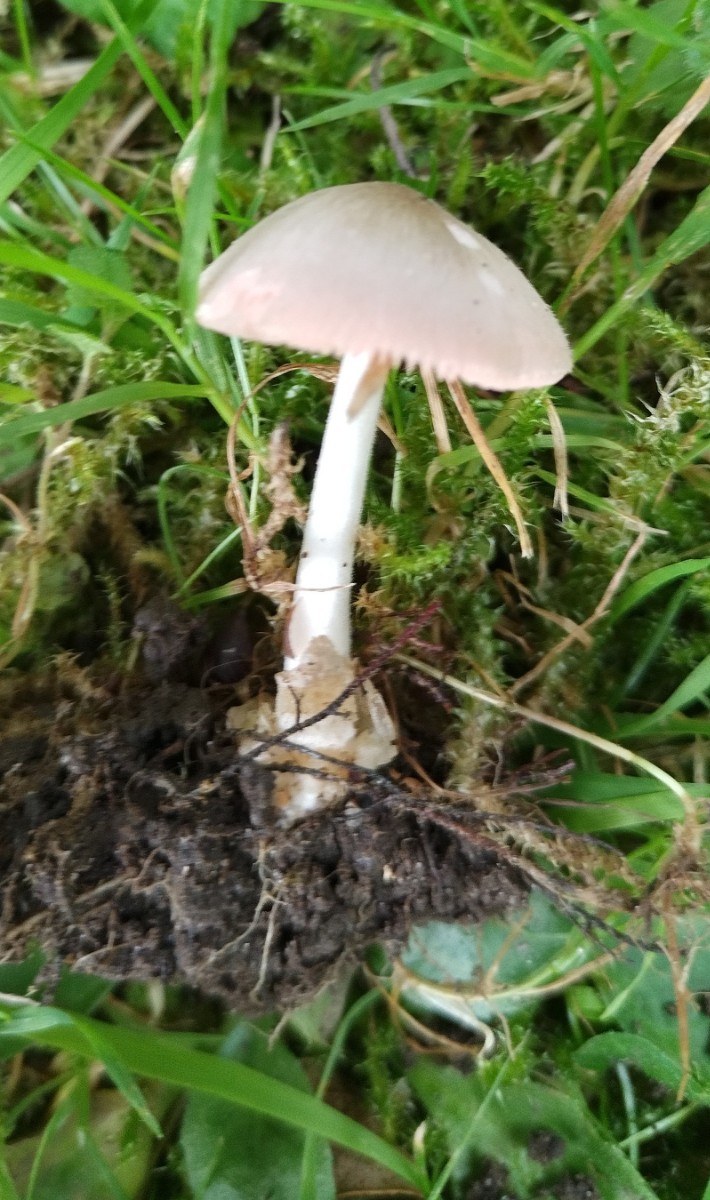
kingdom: Fungi
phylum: Basidiomycota
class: Agaricomycetes
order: Agaricales
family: Pluteaceae
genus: Volvariella
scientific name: Volvariella murinella
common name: musegrå posesvamp
